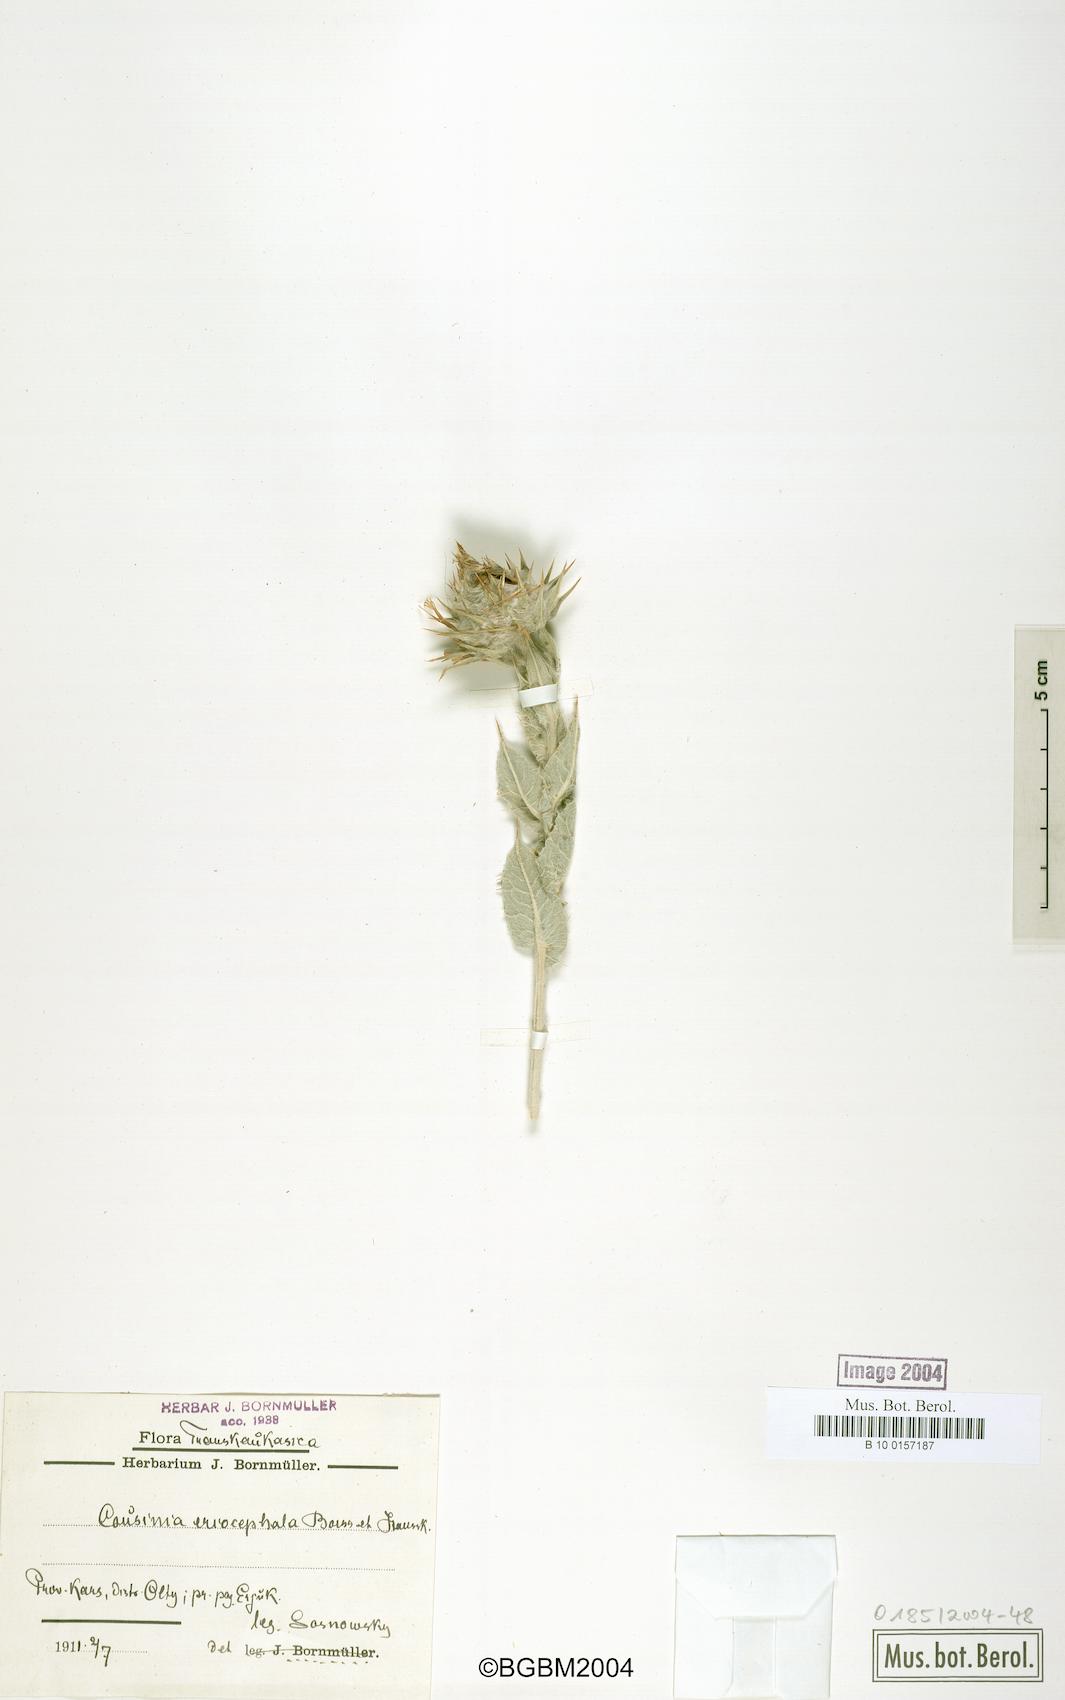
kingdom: Plantae
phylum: Tracheophyta
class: Magnoliopsida
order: Asterales
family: Asteraceae
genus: Cousinia
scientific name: Cousinia canescens
